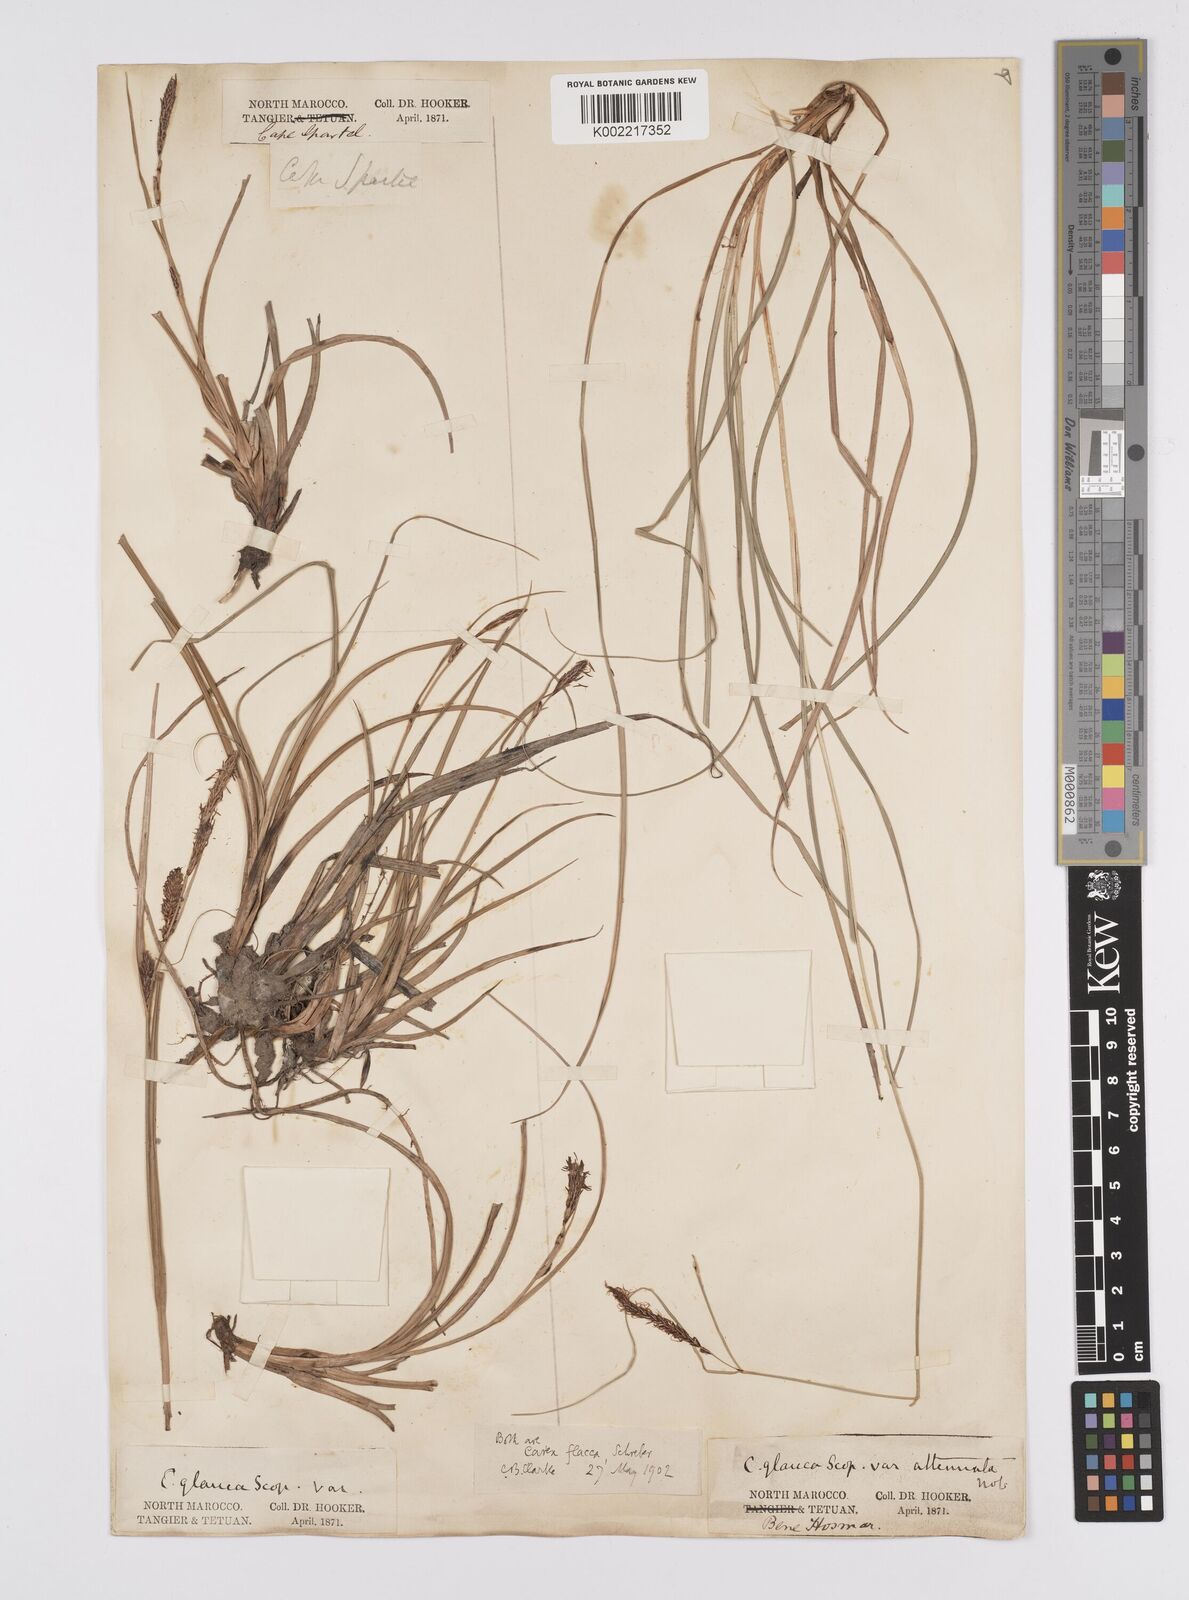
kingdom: Plantae
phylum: Tracheophyta
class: Liliopsida
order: Poales
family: Cyperaceae
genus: Carex
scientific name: Carex flacca
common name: Glaucous sedge
